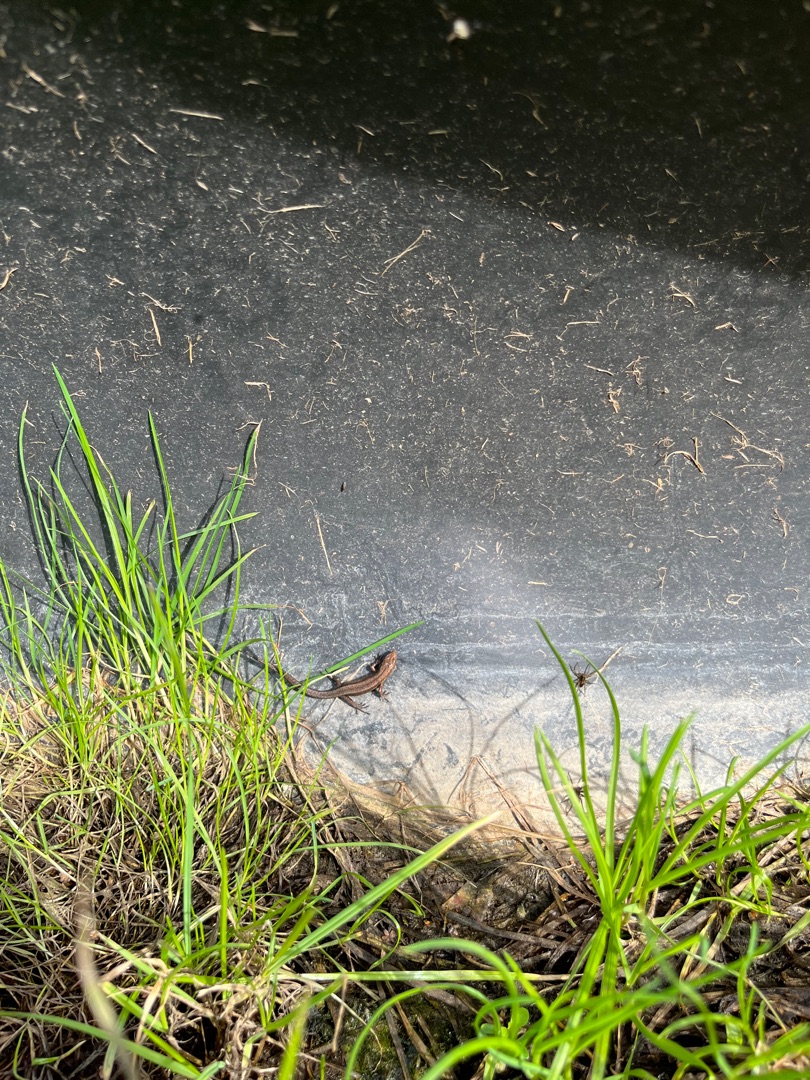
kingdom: Animalia
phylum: Chordata
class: Squamata
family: Lacertidae
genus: Zootoca
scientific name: Zootoca vivipara
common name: Skovfirben
